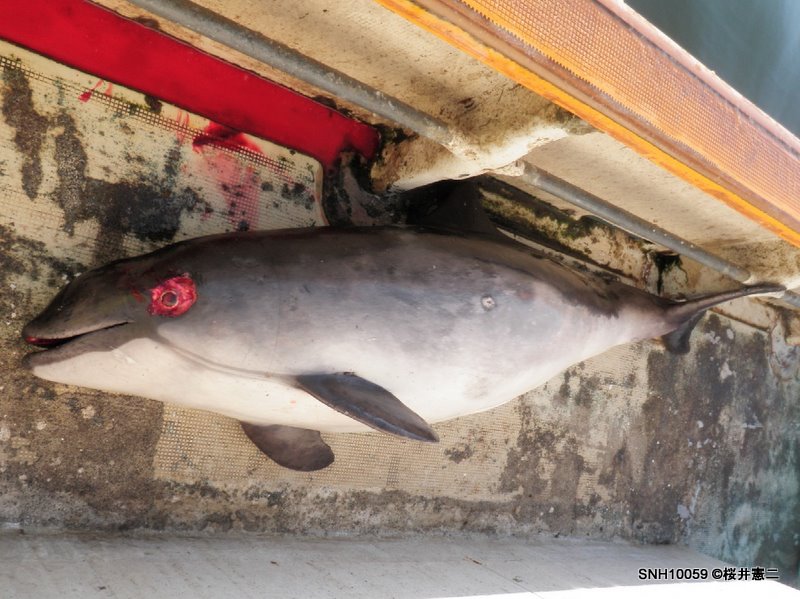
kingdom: Animalia
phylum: Chordata
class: Mammalia
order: Cetacea
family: Phocoenidae
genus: Phocoena
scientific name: Phocoena phocoena
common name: Harbour porpoise
